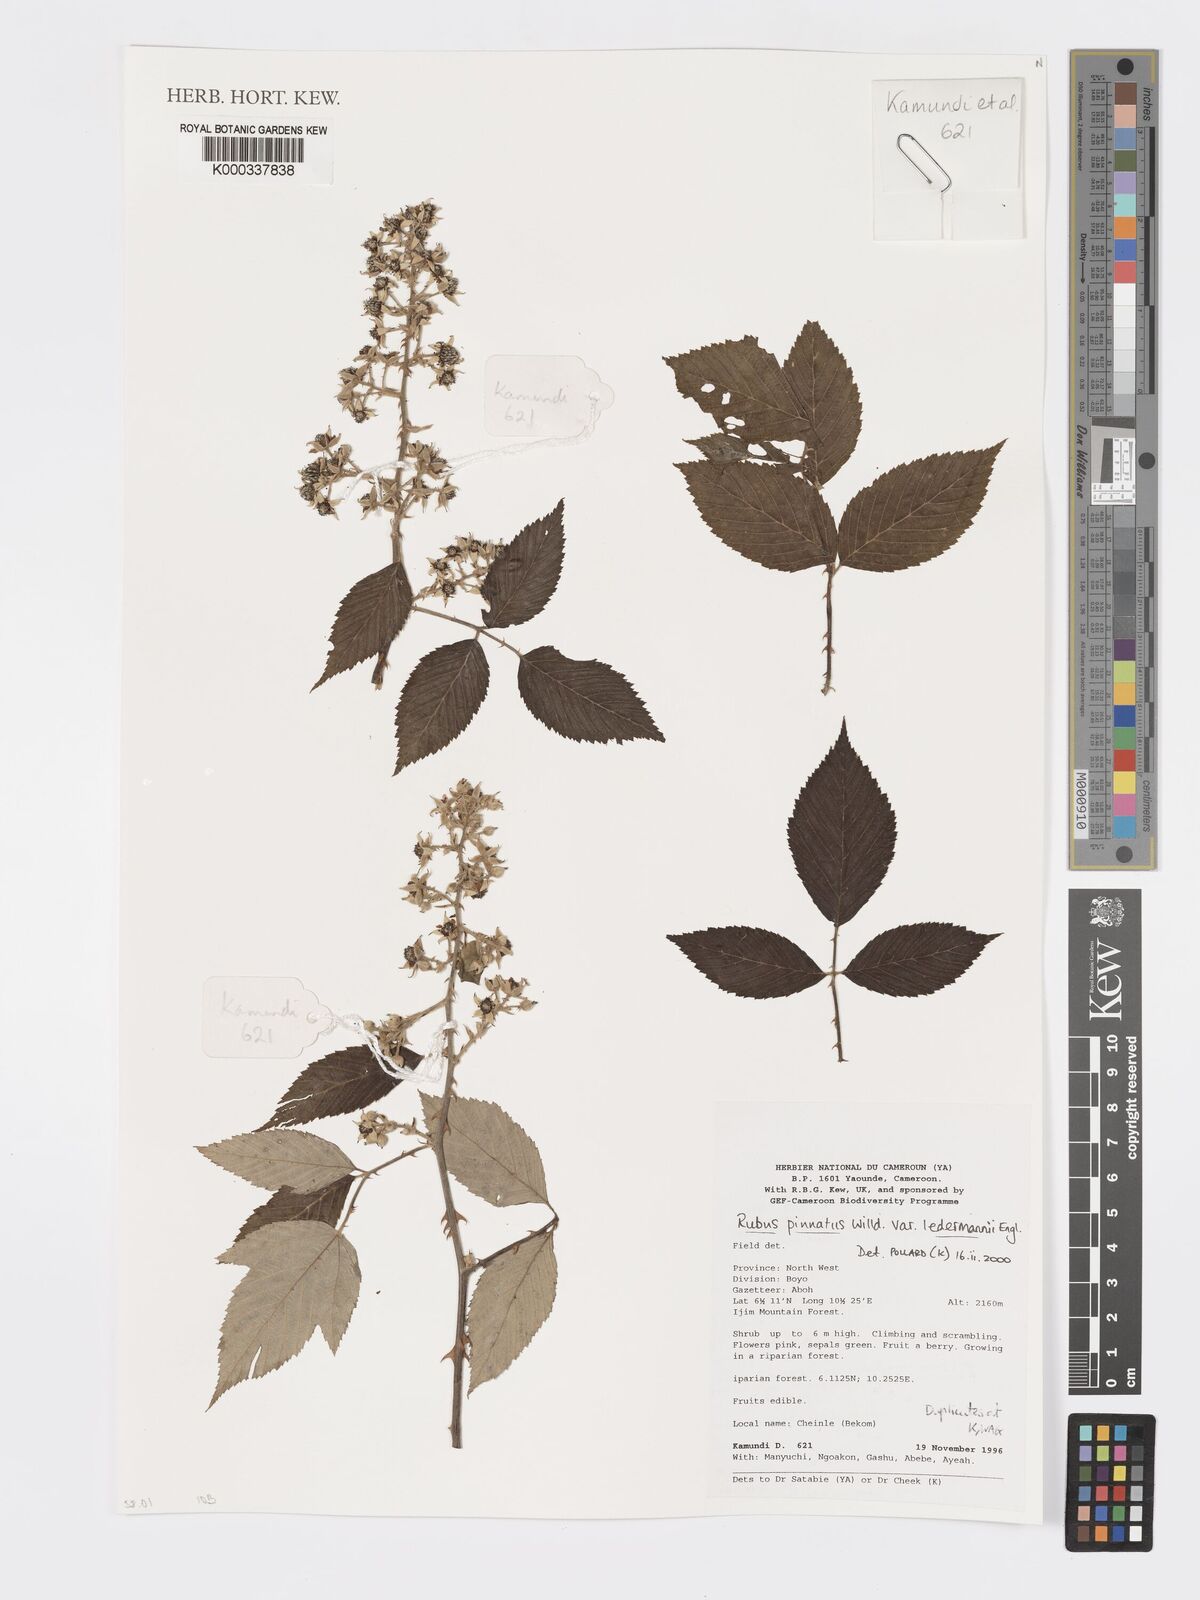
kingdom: Plantae
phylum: Tracheophyta
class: Magnoliopsida
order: Rosales
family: Rosaceae
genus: Rubus
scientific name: Rubus pinnatus
